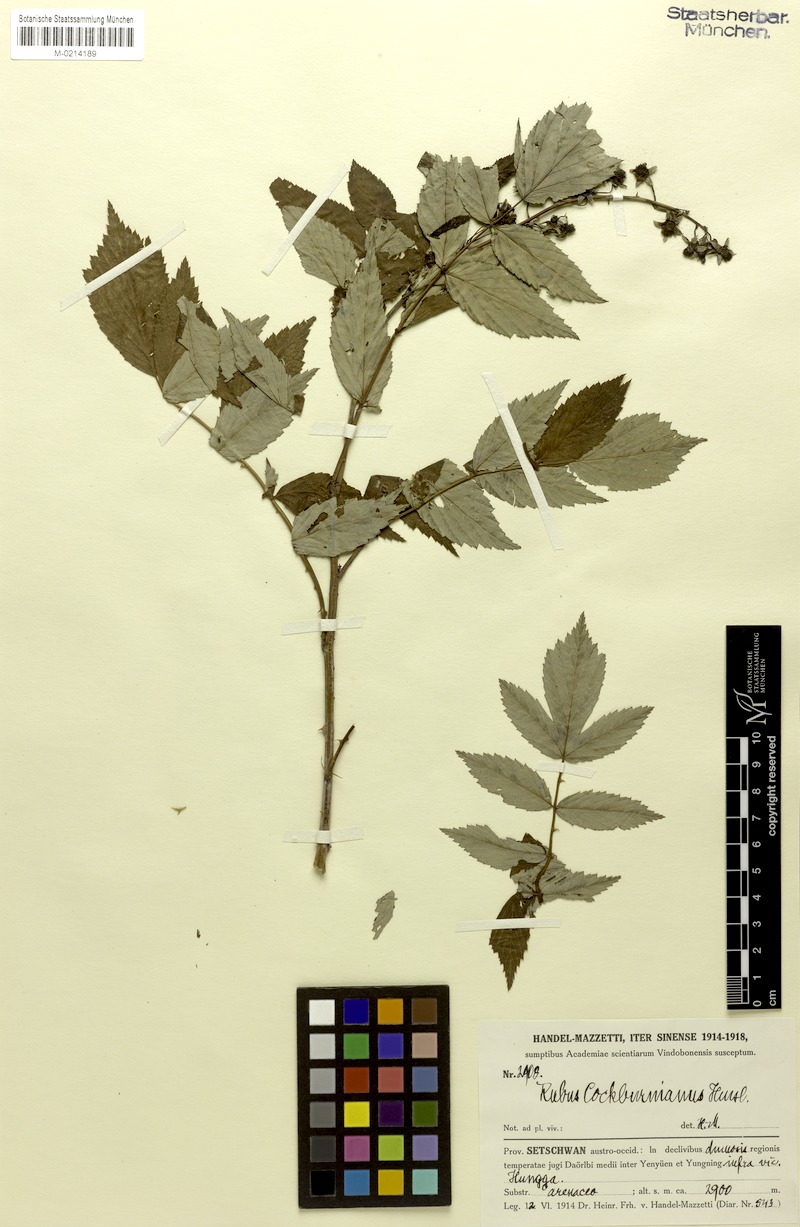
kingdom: Plantae
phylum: Tracheophyta
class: Magnoliopsida
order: Rosales
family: Rosaceae
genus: Rubus
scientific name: Rubus cockburnianus
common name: White-stemmed bramble
